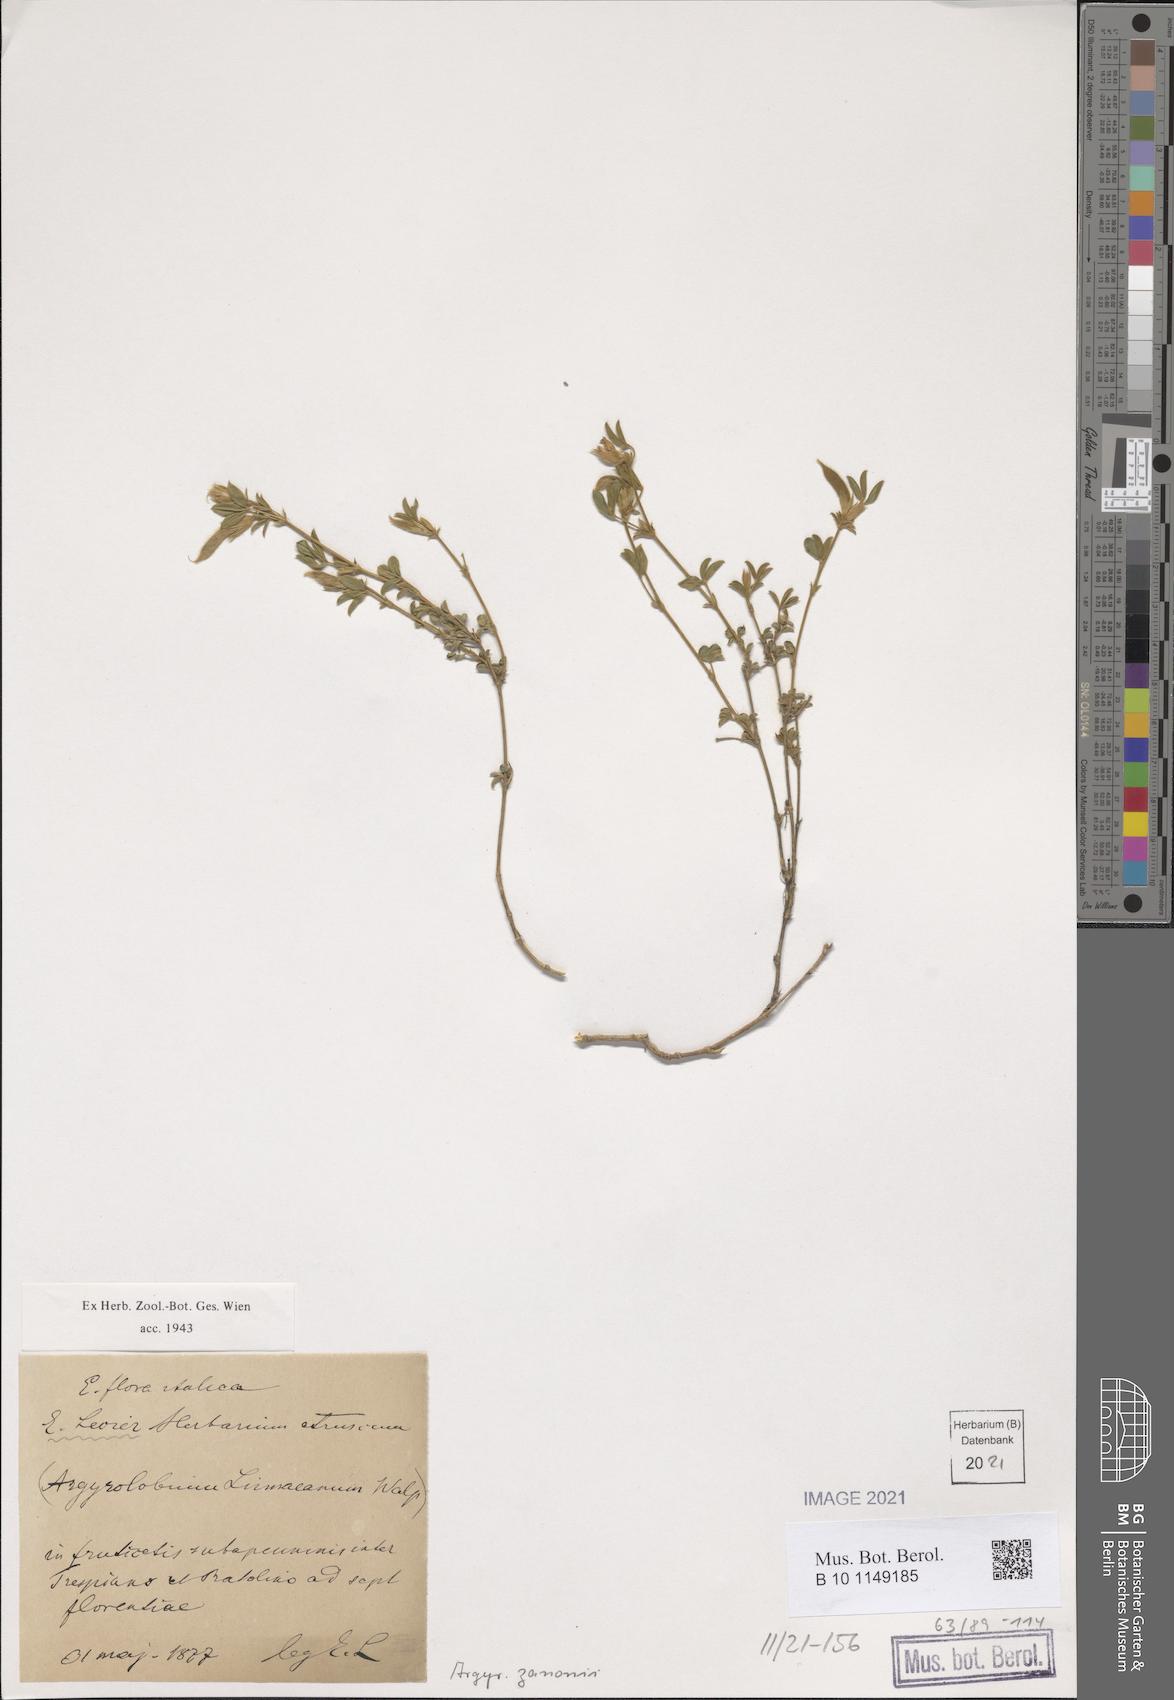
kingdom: Plantae
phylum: Tracheophyta
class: Magnoliopsida
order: Fabales
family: Fabaceae
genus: Argyrolobium
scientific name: Argyrolobium zanonii
